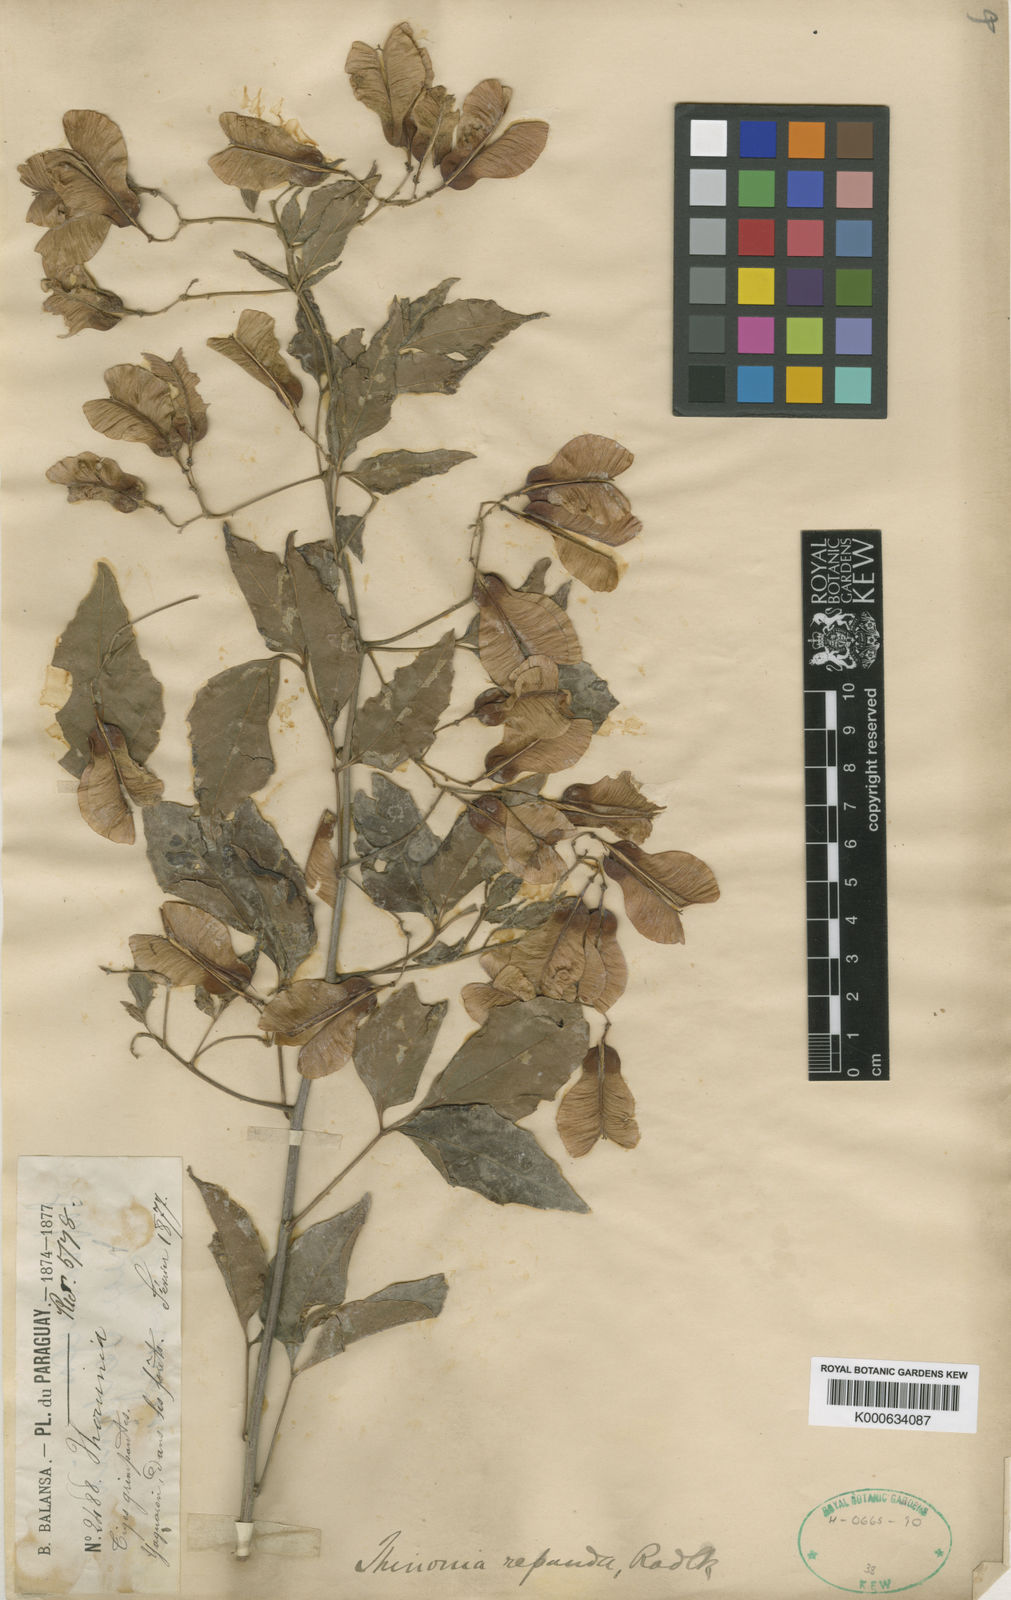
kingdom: Plantae
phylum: Tracheophyta
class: Magnoliopsida
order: Sapindales
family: Sapindaceae
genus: Thinouia
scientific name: Thinouia mucronata
